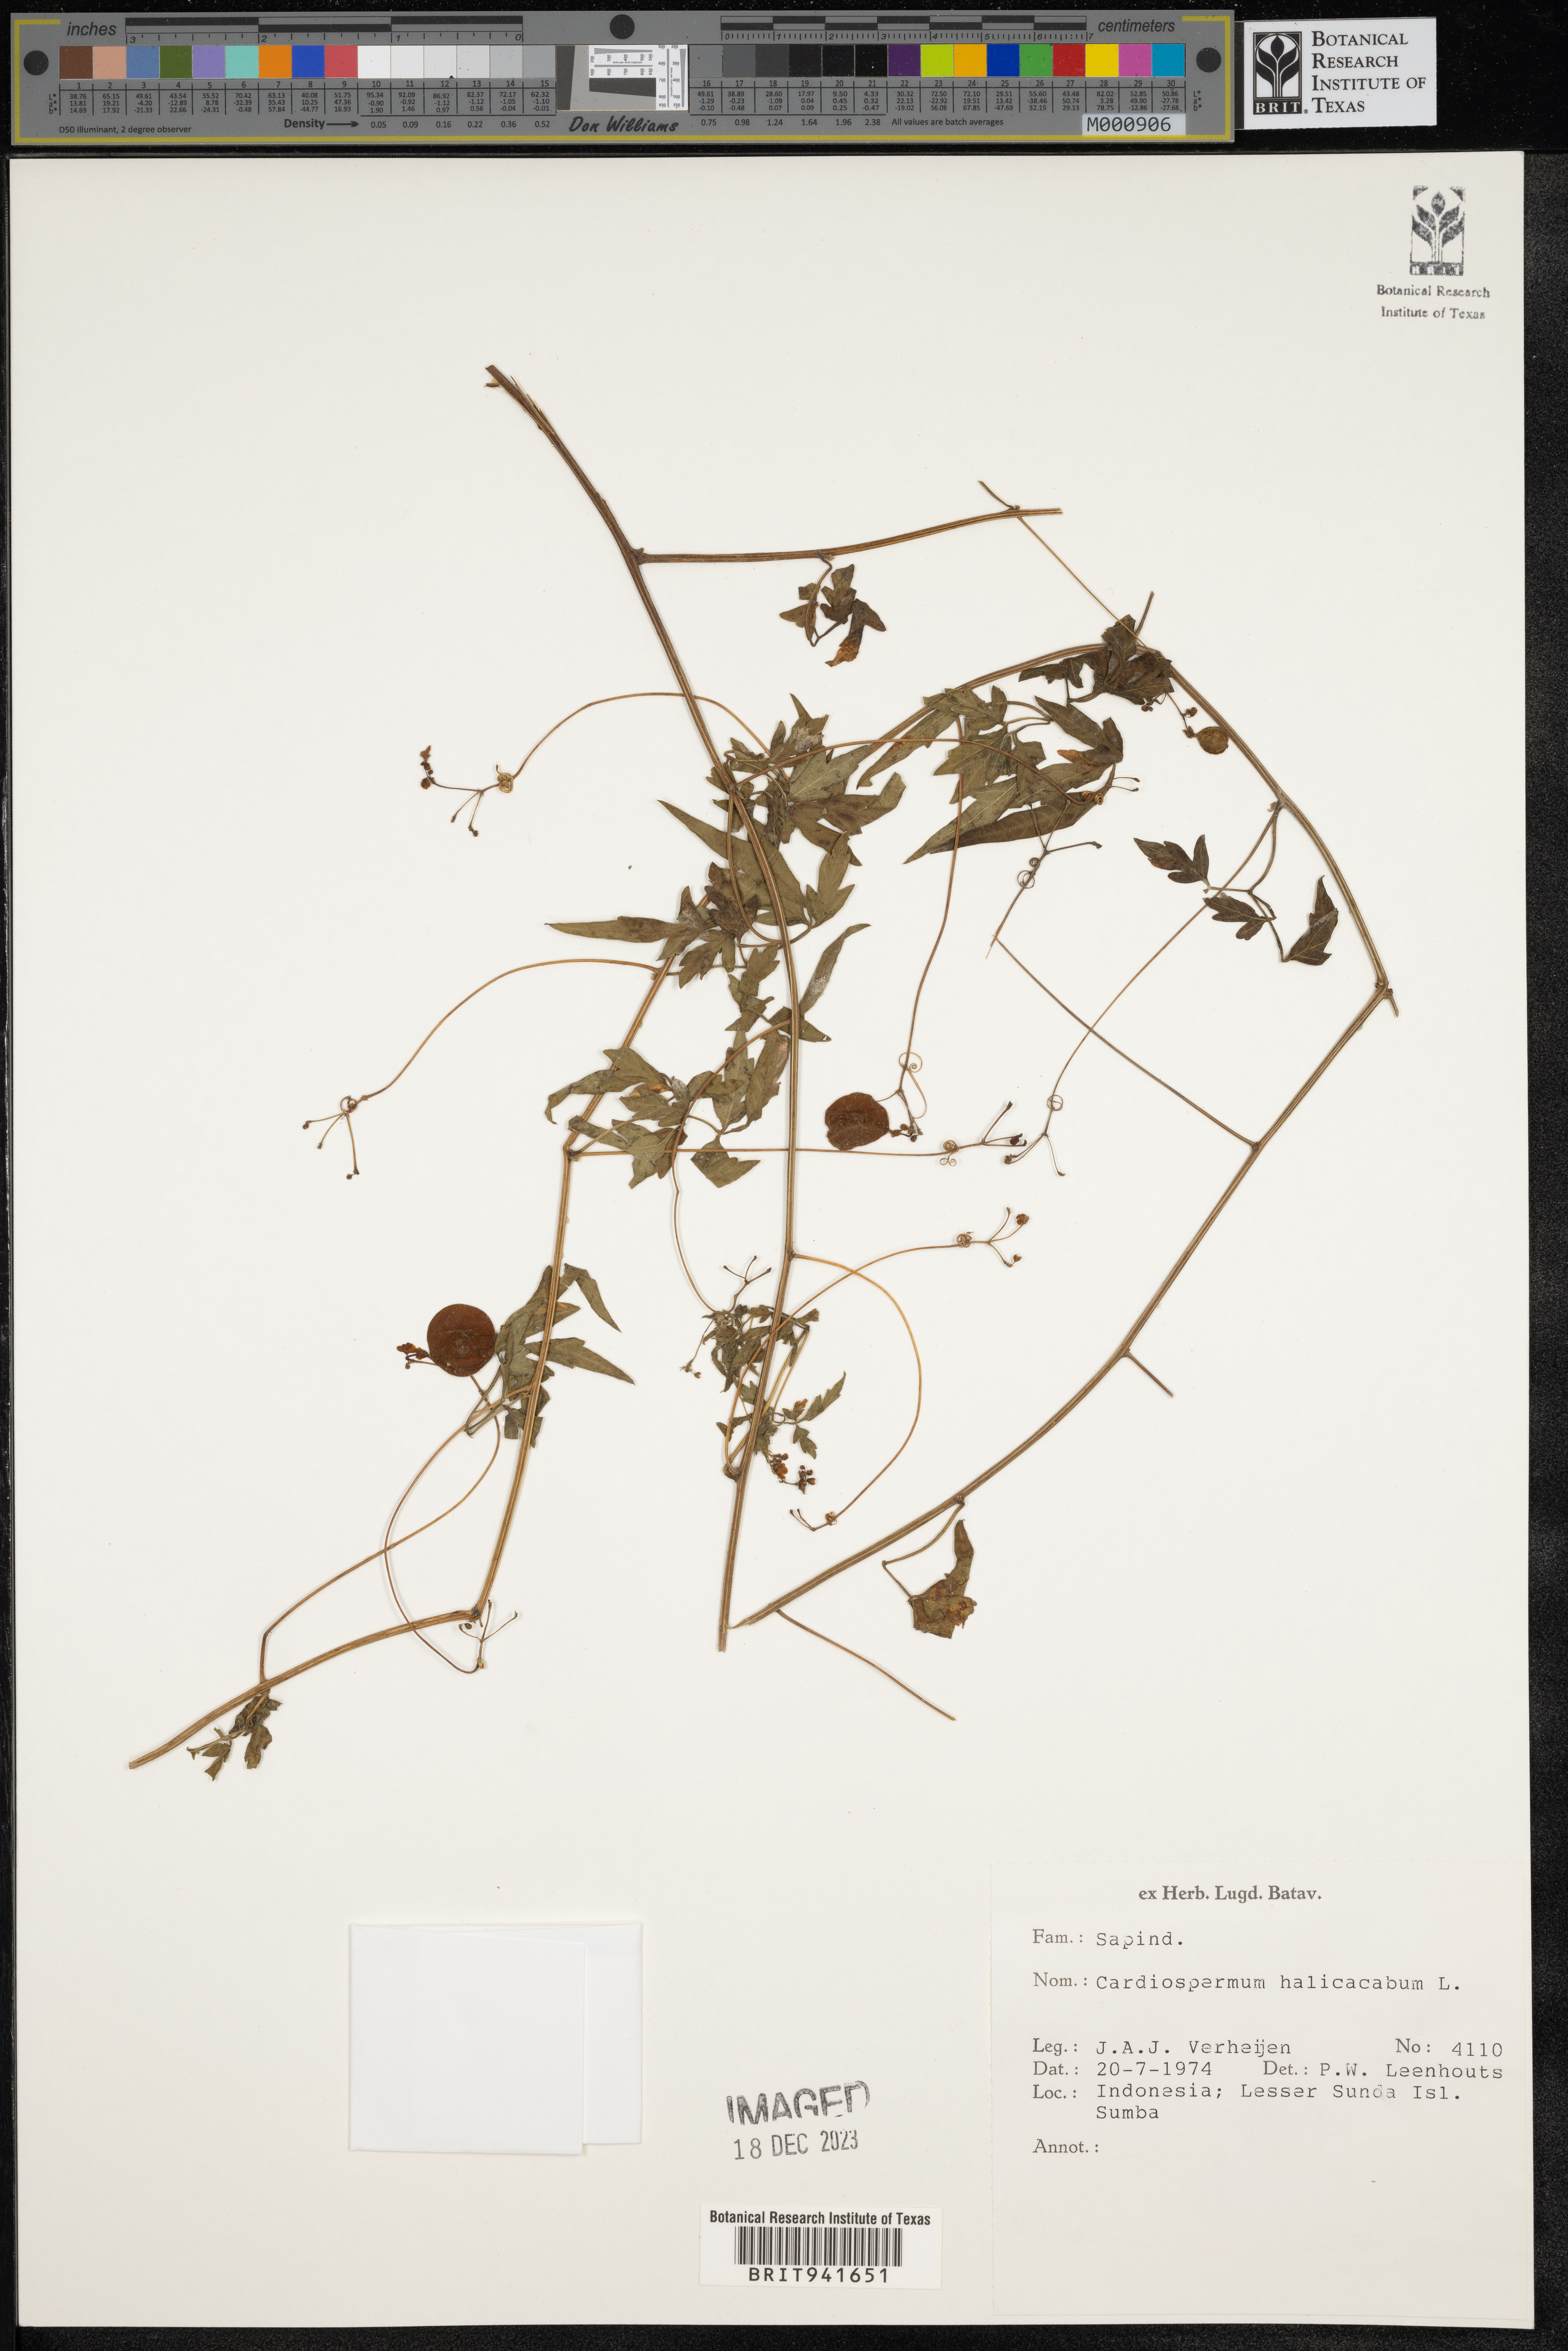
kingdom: Plantae
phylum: Tracheophyta
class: Magnoliopsida
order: Sapindales
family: Sapindaceae
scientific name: Sapindaceae
